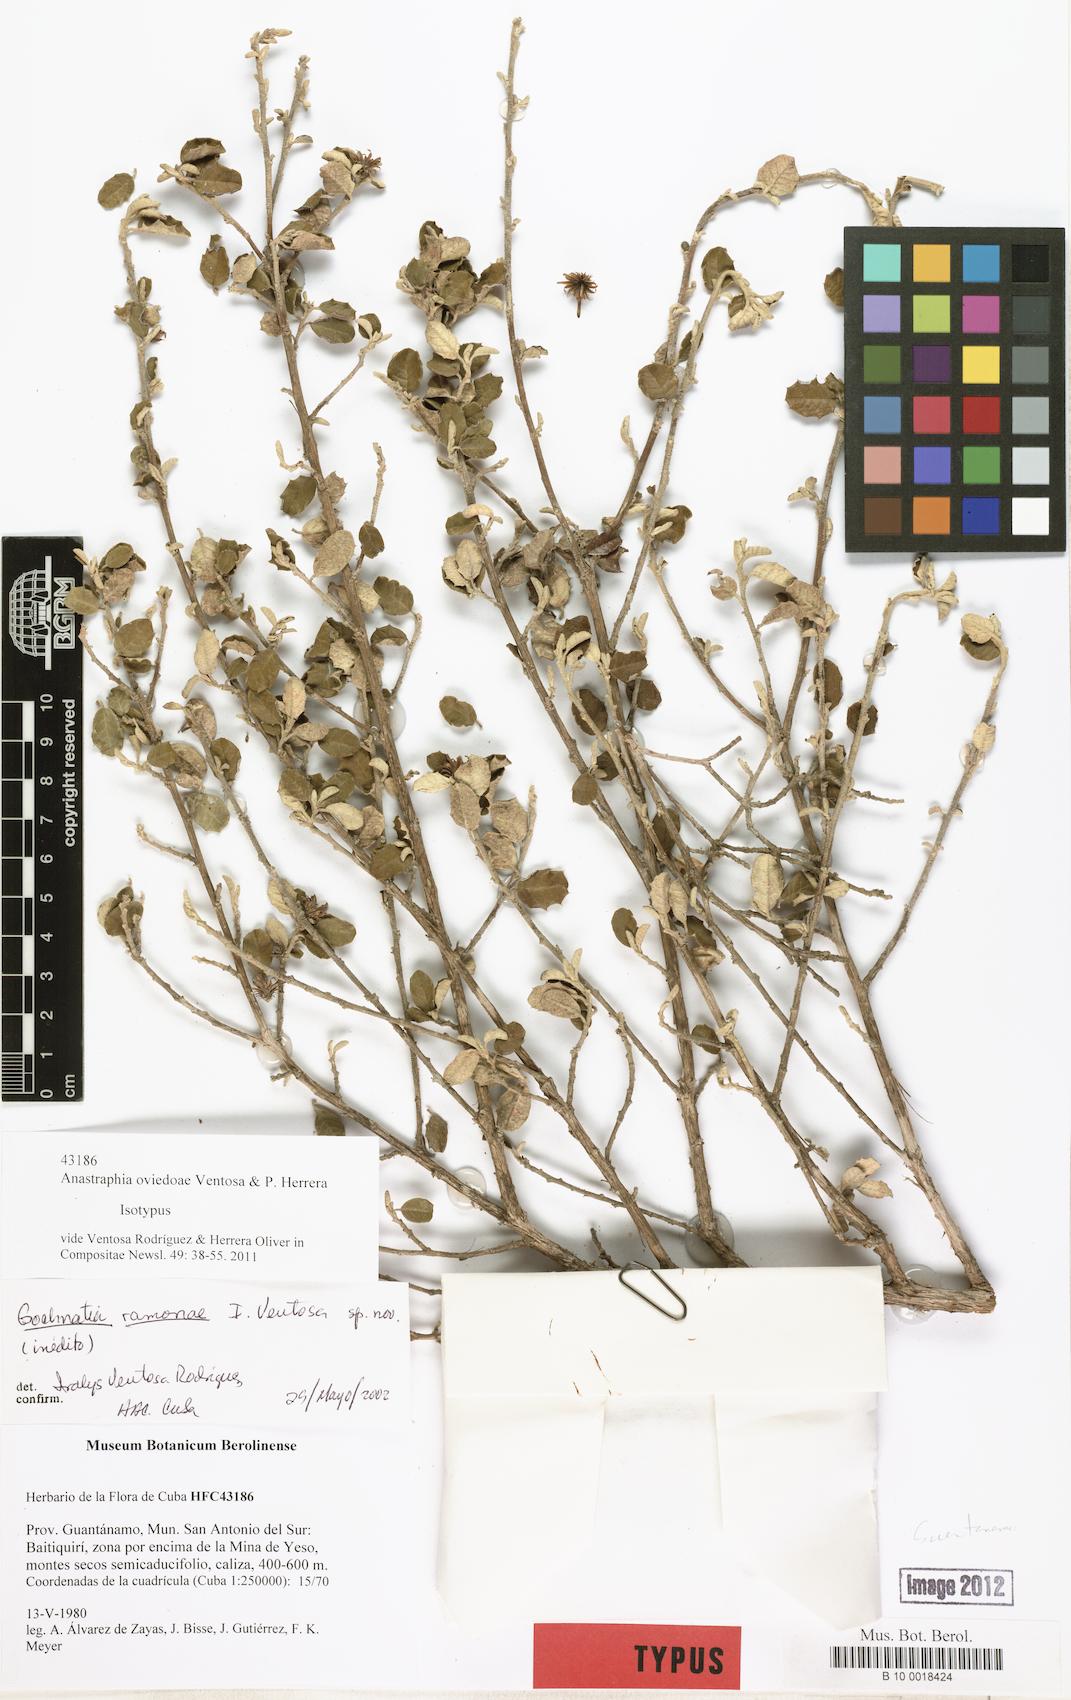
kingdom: Plantae
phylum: Tracheophyta
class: Magnoliopsida
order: Asterales
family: Asteraceae
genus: Anastraphia
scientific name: Anastraphia oviedoae
